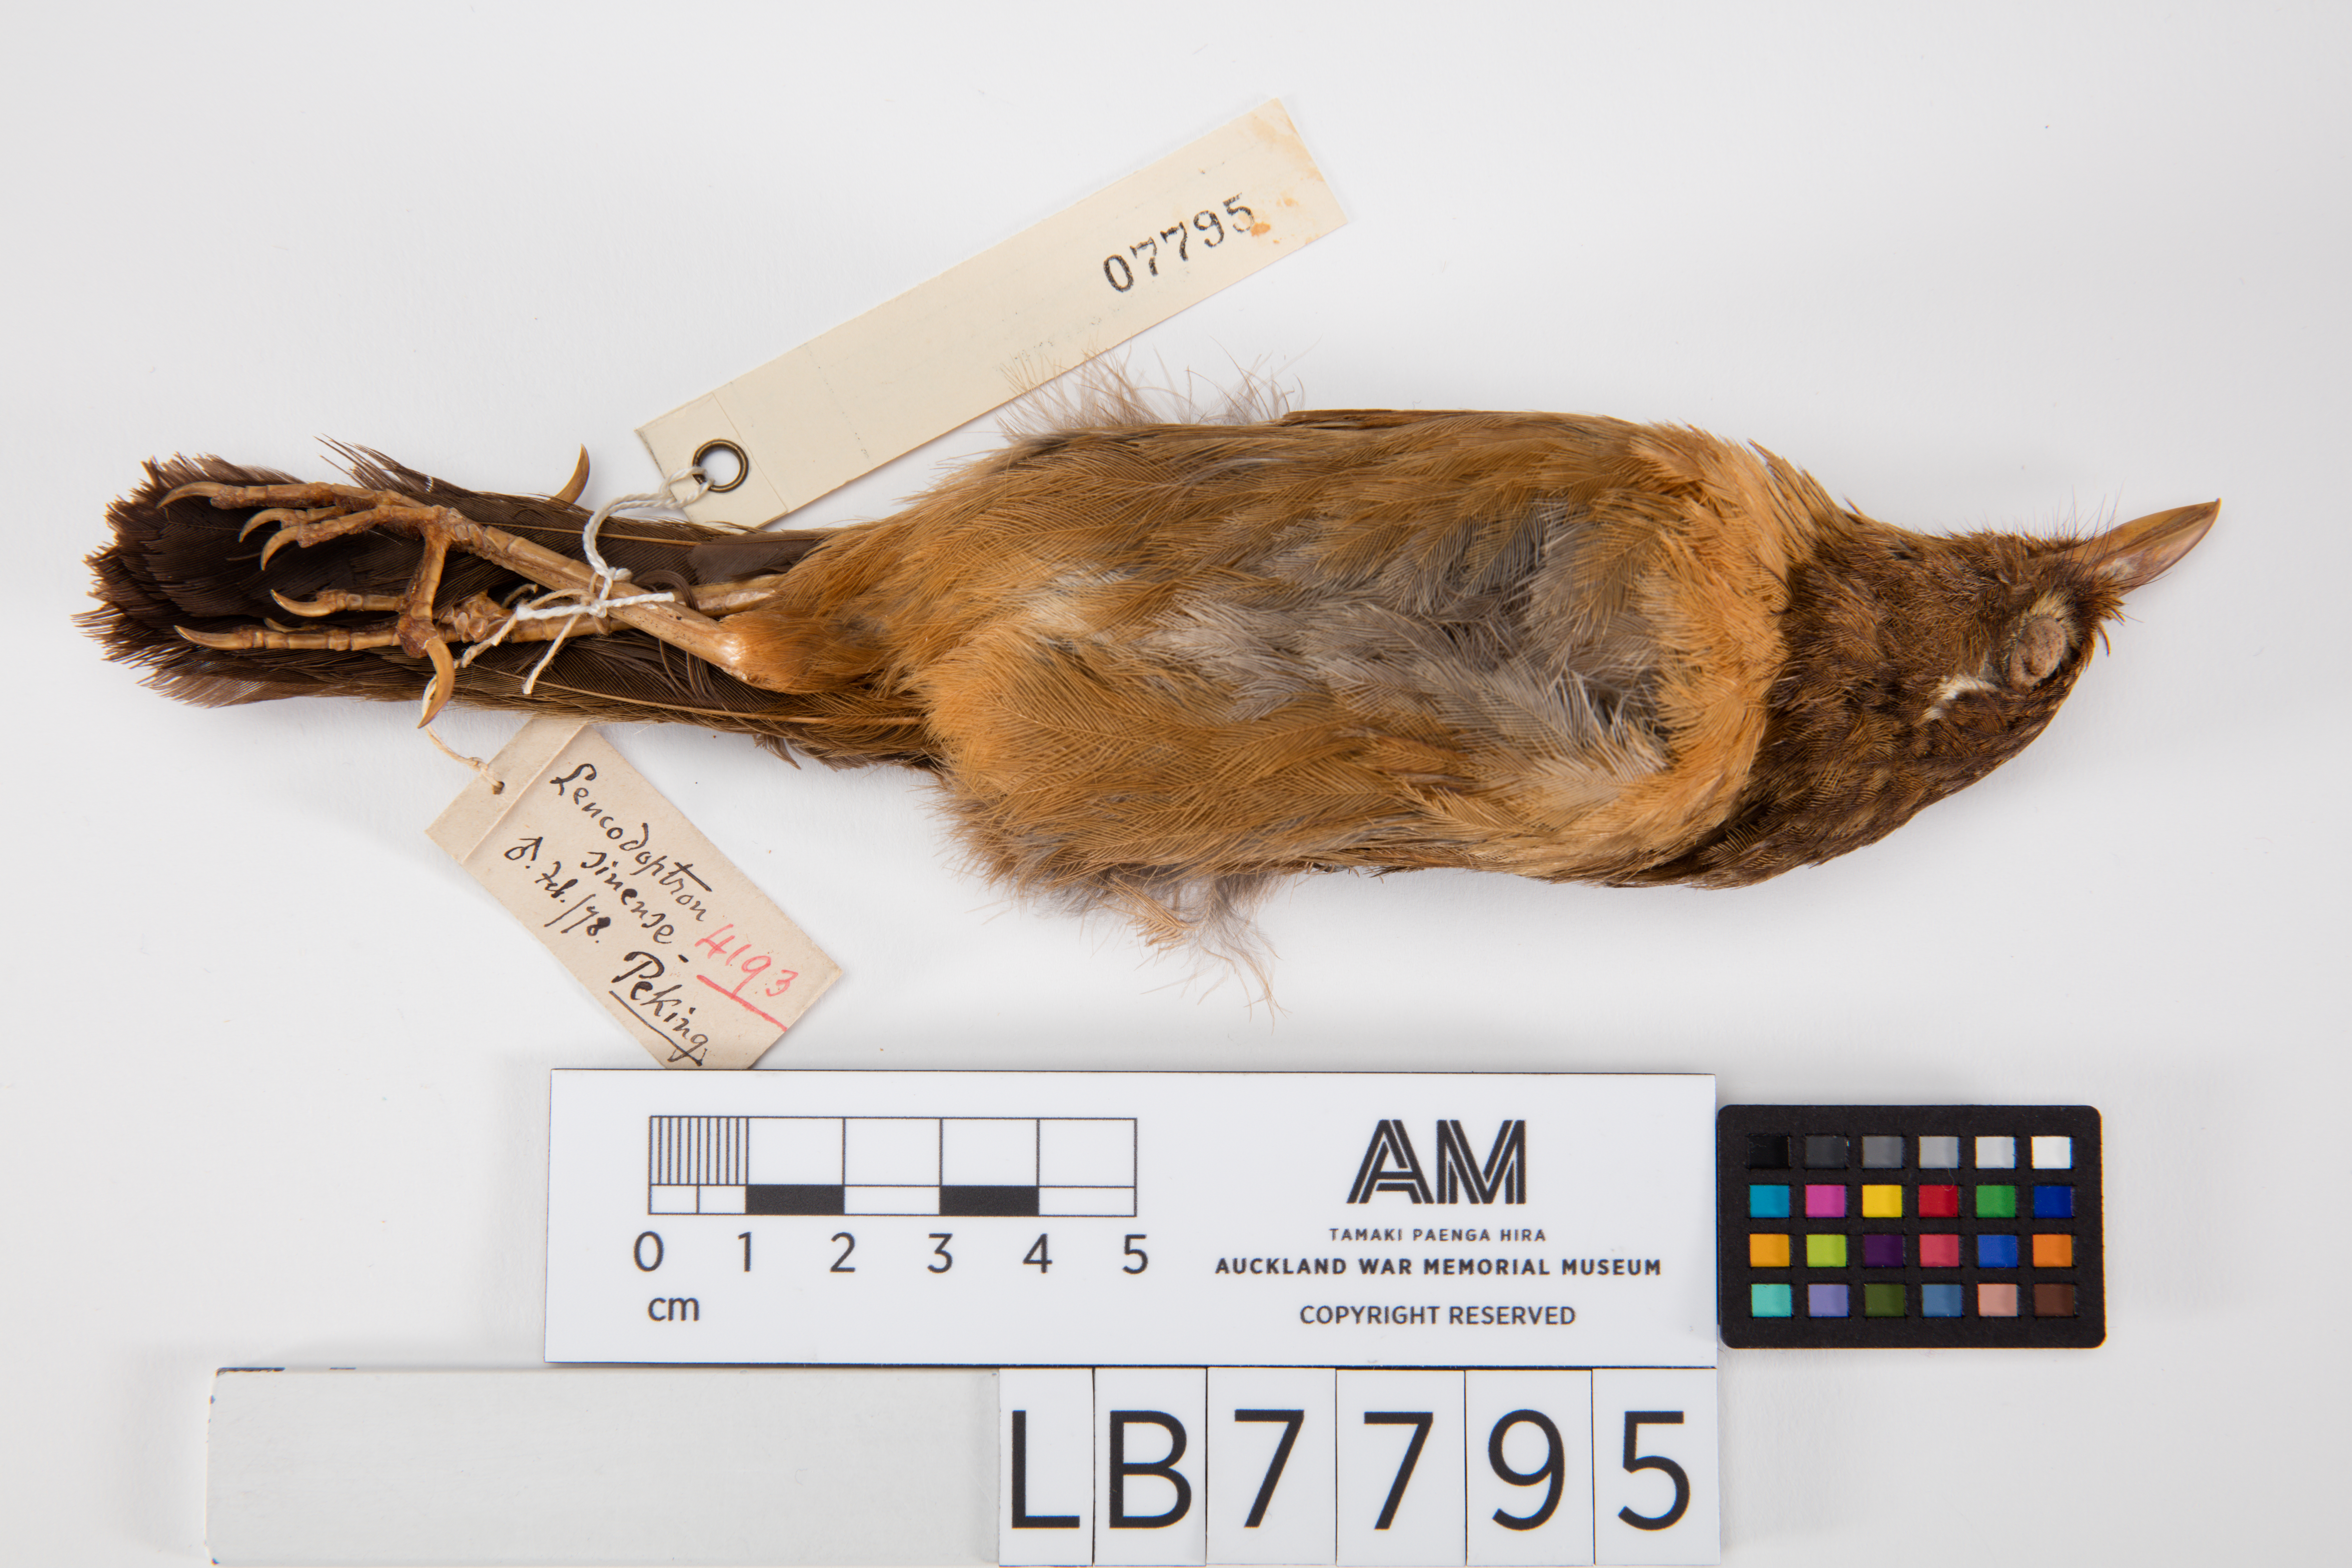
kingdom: Animalia
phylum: Chordata
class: Aves
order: Passeriformes
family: Turdidae
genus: Turdus
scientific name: Turdus
